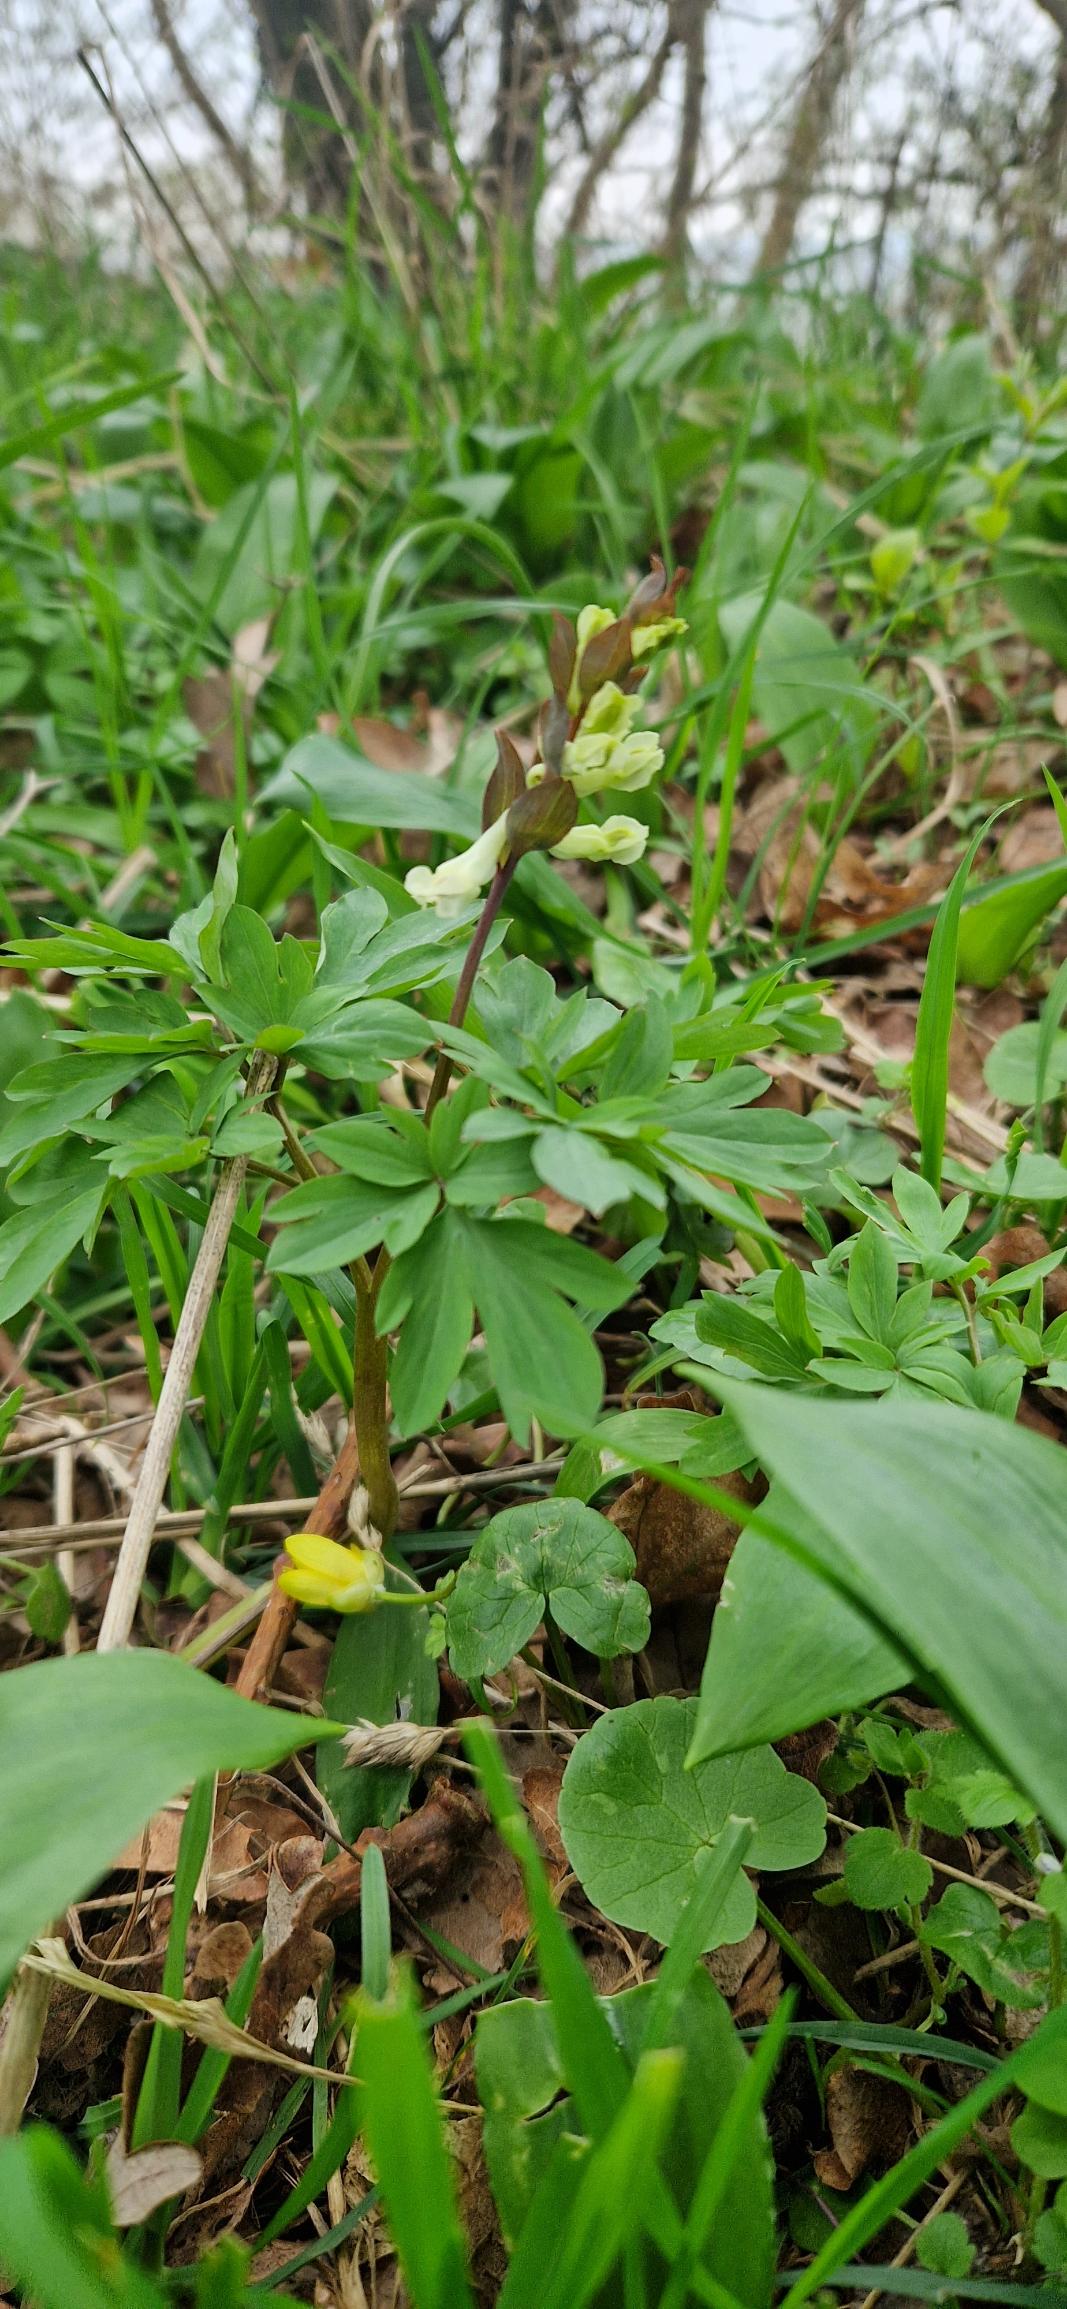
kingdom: Plantae
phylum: Tracheophyta
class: Magnoliopsida
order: Ranunculales
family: Papaveraceae
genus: Corydalis
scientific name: Corydalis cava
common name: Hulrodet lærkespore
